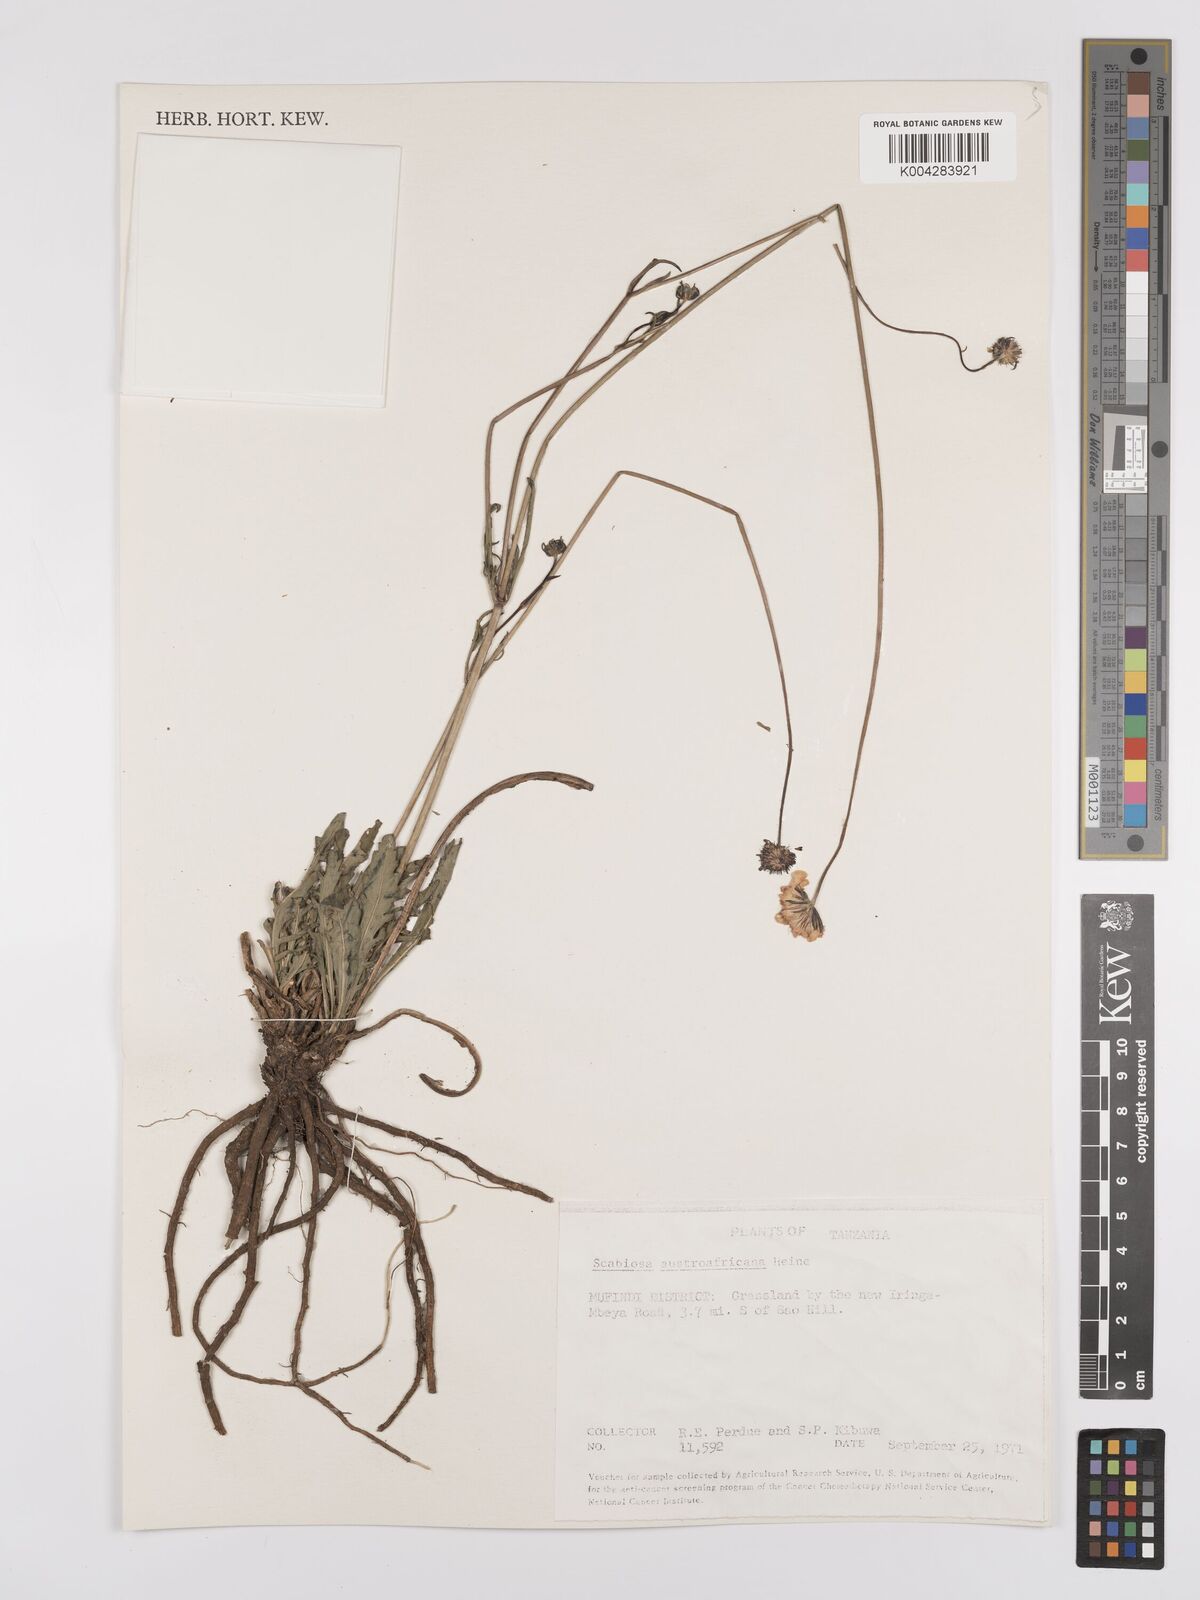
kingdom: Plantae
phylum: Tracheophyta
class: Magnoliopsida
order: Dipsacales
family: Caprifoliaceae
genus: Scabiosa
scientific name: Scabiosa austroafricana
